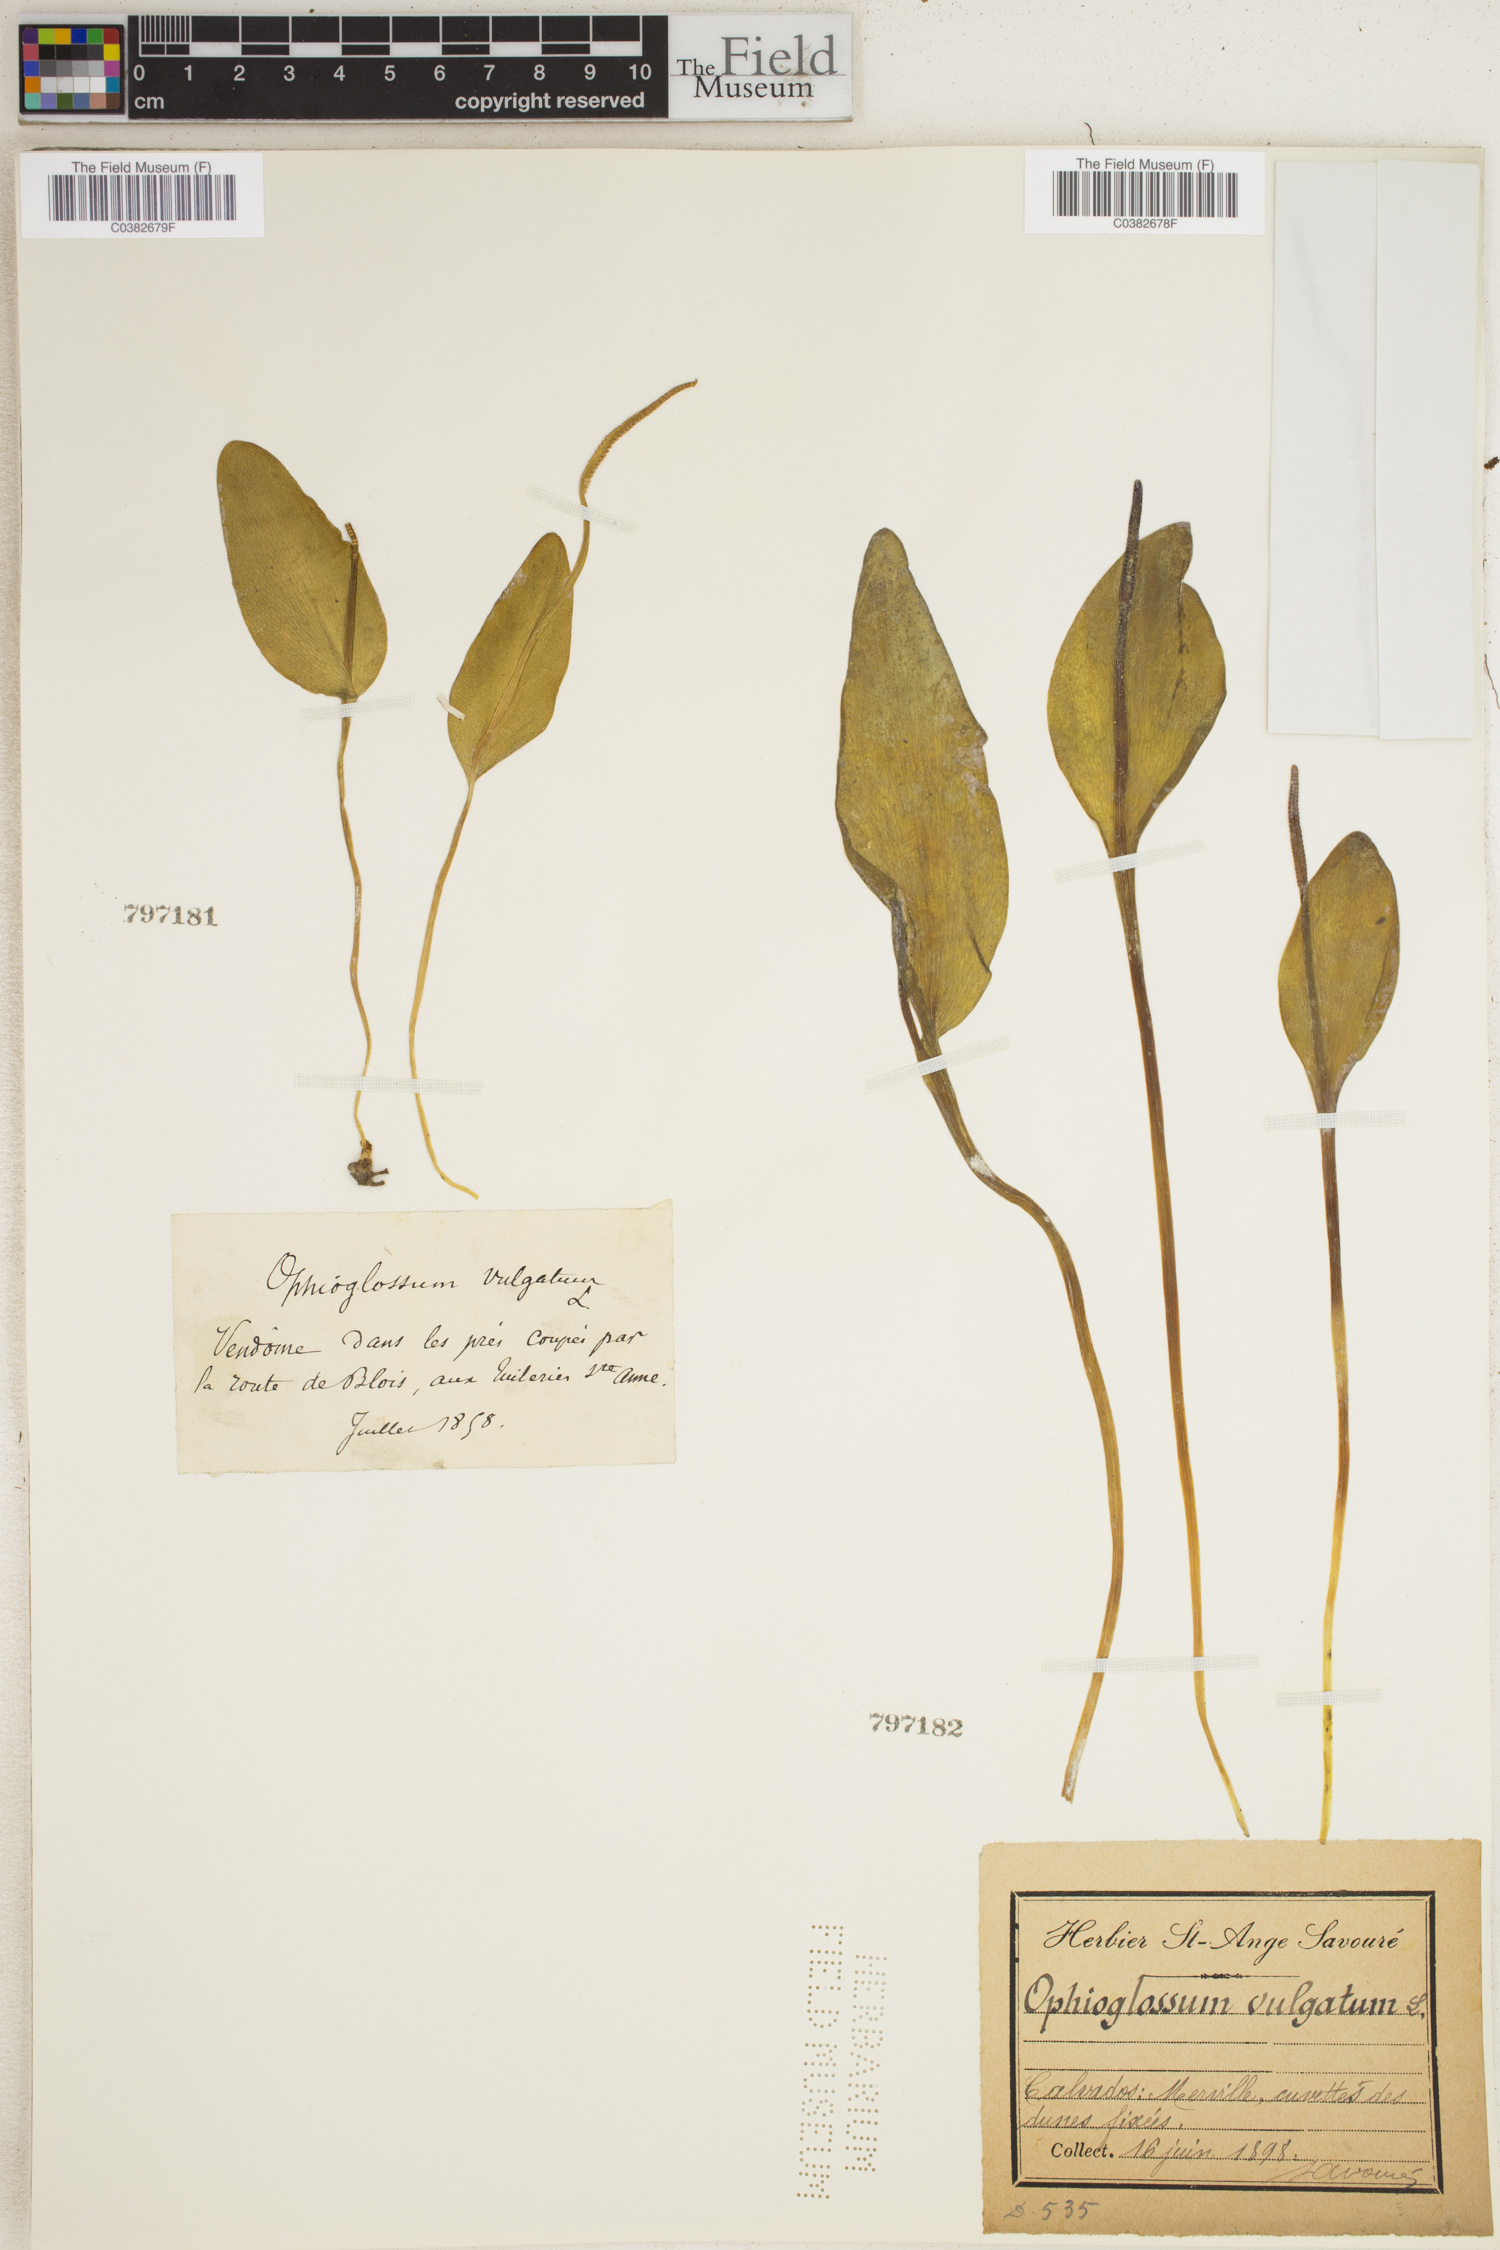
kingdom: Plantae
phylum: Tracheophyta
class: Polypodiopsida
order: Ophioglossales
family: Ophioglossaceae
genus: Ophioglossum
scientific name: Ophioglossum vulgatum
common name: Adder's-tongue
